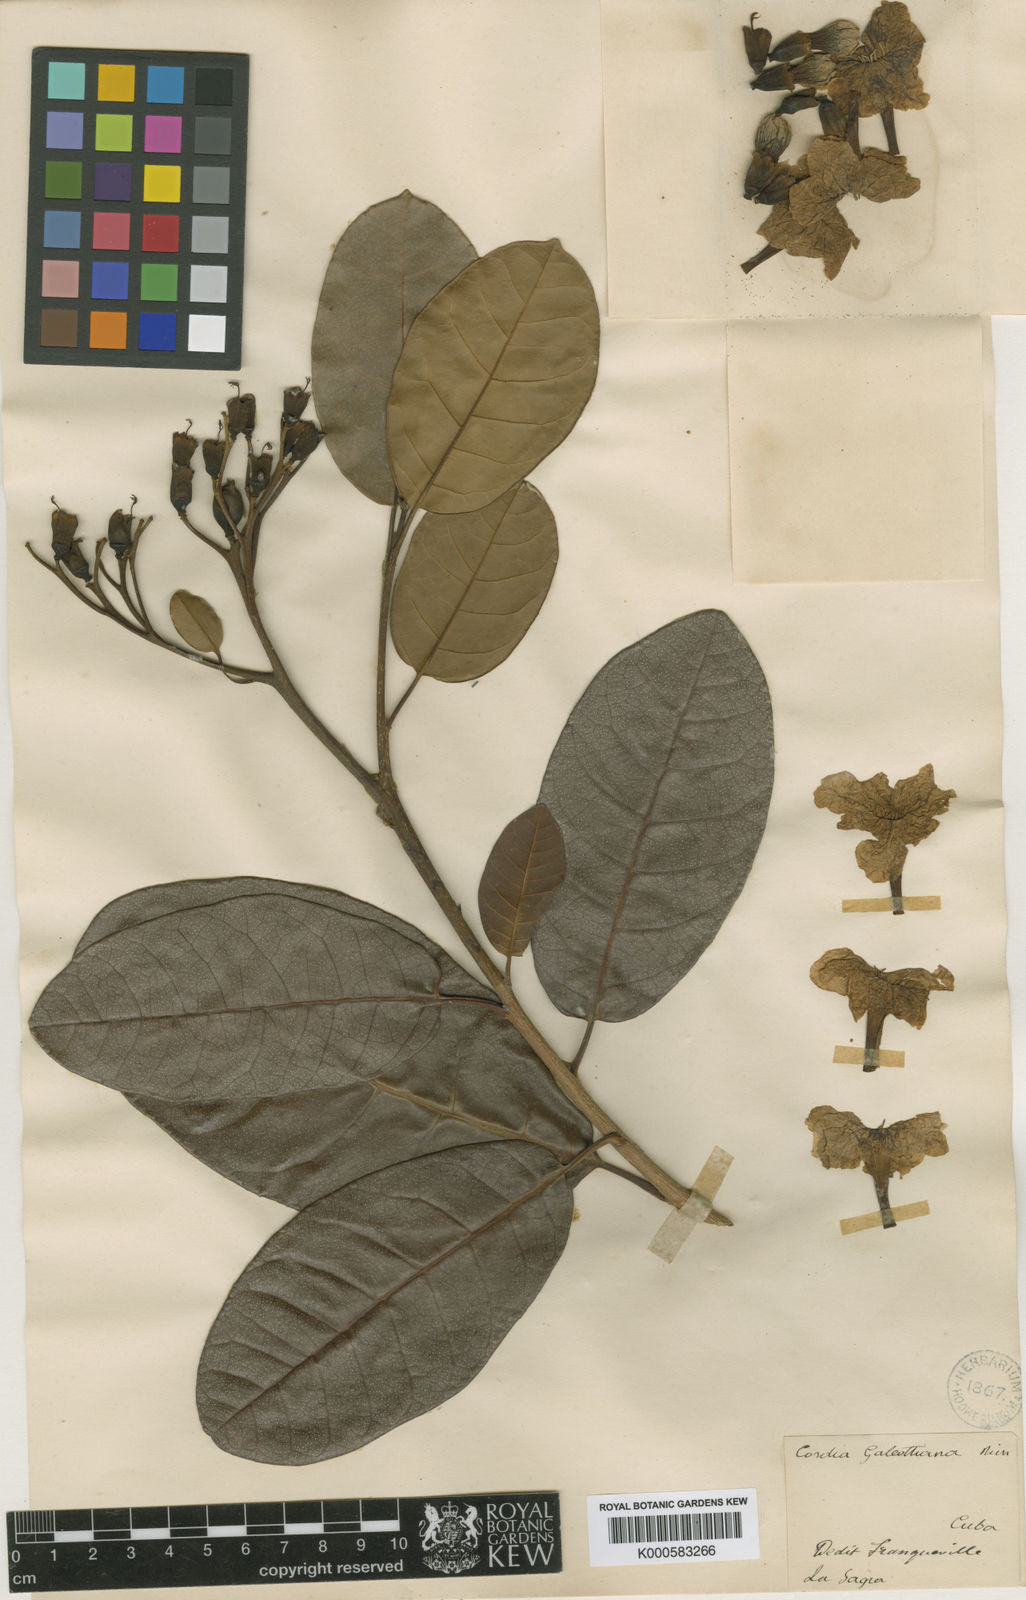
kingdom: Plantae
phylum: Tracheophyta
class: Magnoliopsida
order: Boraginales
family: Cordiaceae
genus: Cordia
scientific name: Cordia galeottiana
